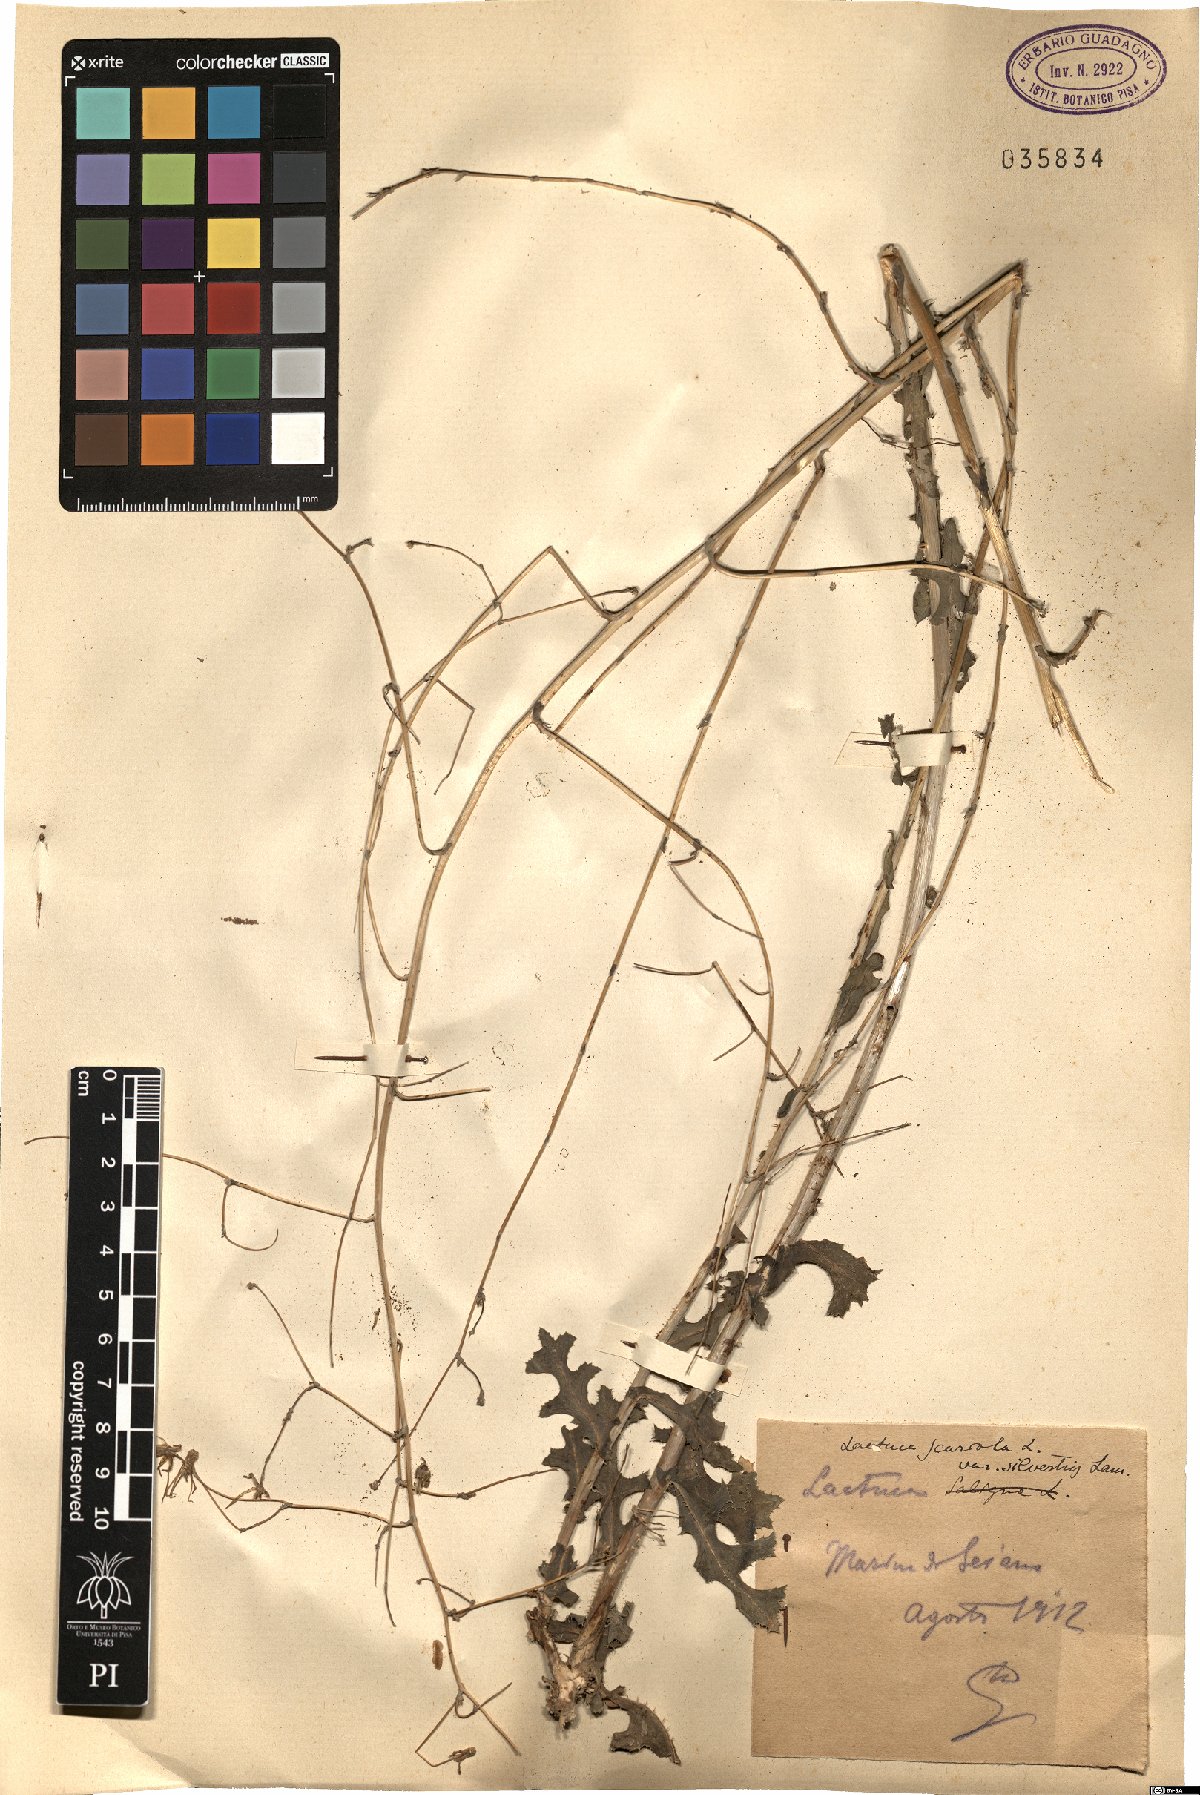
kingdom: Plantae
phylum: Tracheophyta
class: Magnoliopsida
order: Asterales
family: Asteraceae
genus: Lactuca
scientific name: Lactuca serriola
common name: Prickly lettuce
